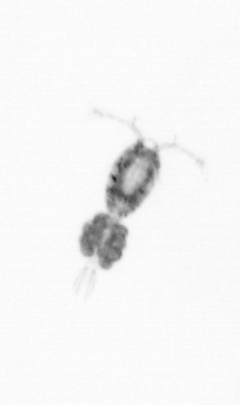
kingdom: Animalia
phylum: Arthropoda
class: Copepoda
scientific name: Copepoda
